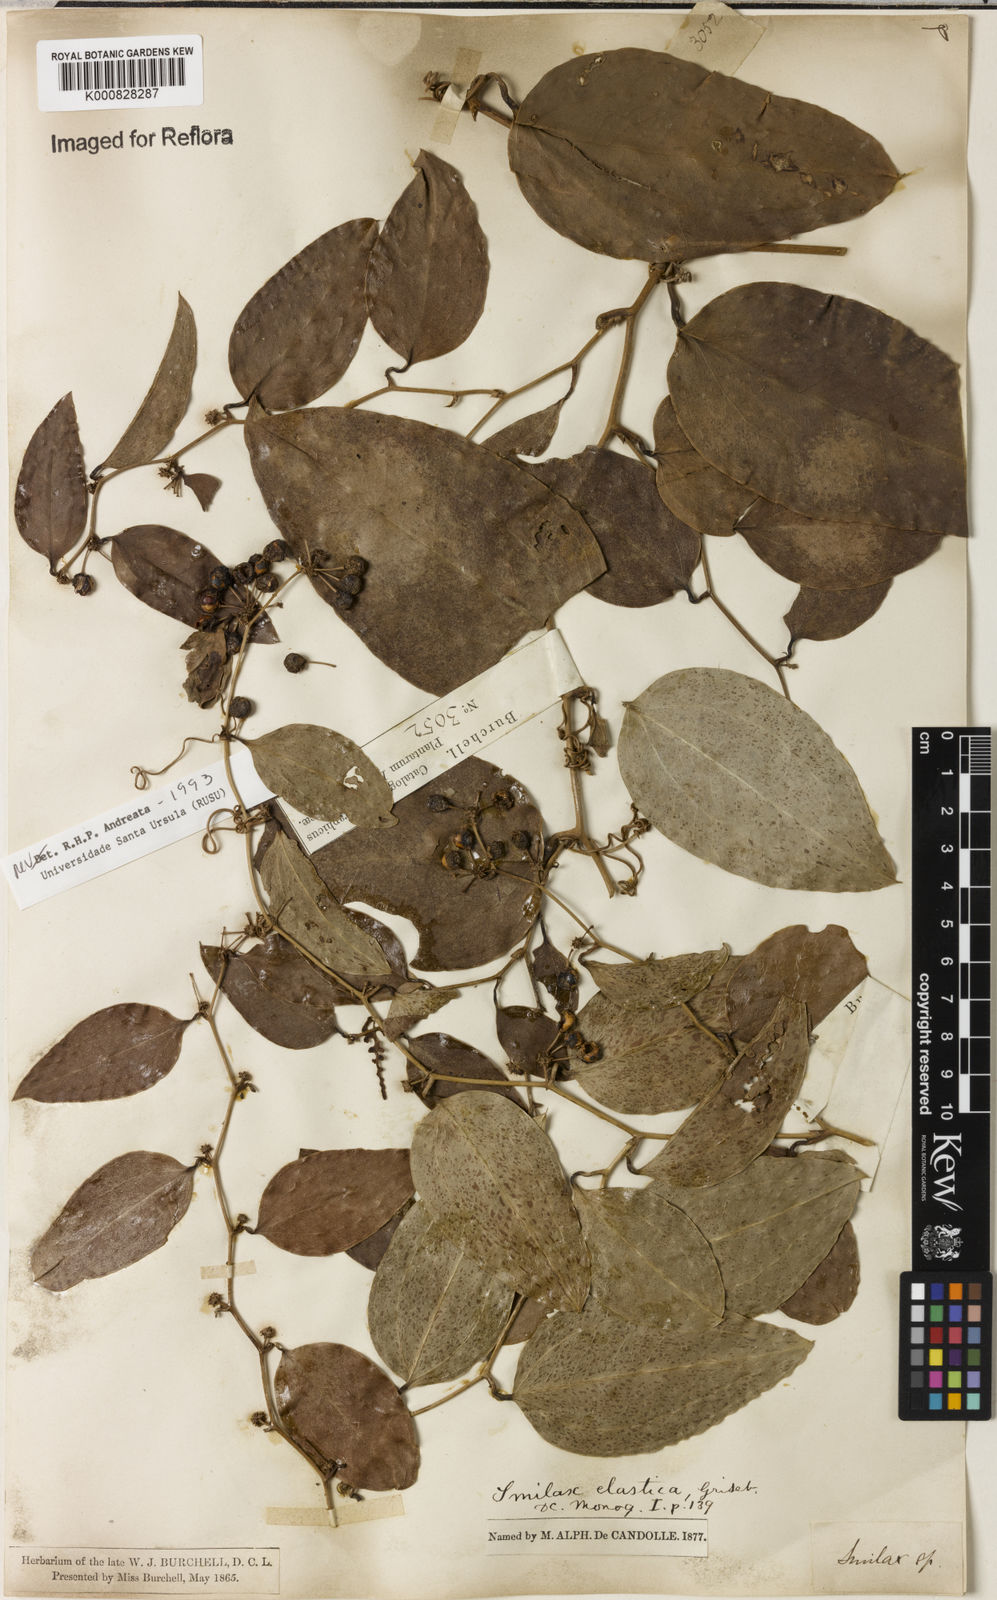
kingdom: Plantae
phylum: Tracheophyta
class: Liliopsida
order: Liliales
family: Smilacaceae
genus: Smilax
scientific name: Smilax elastica
